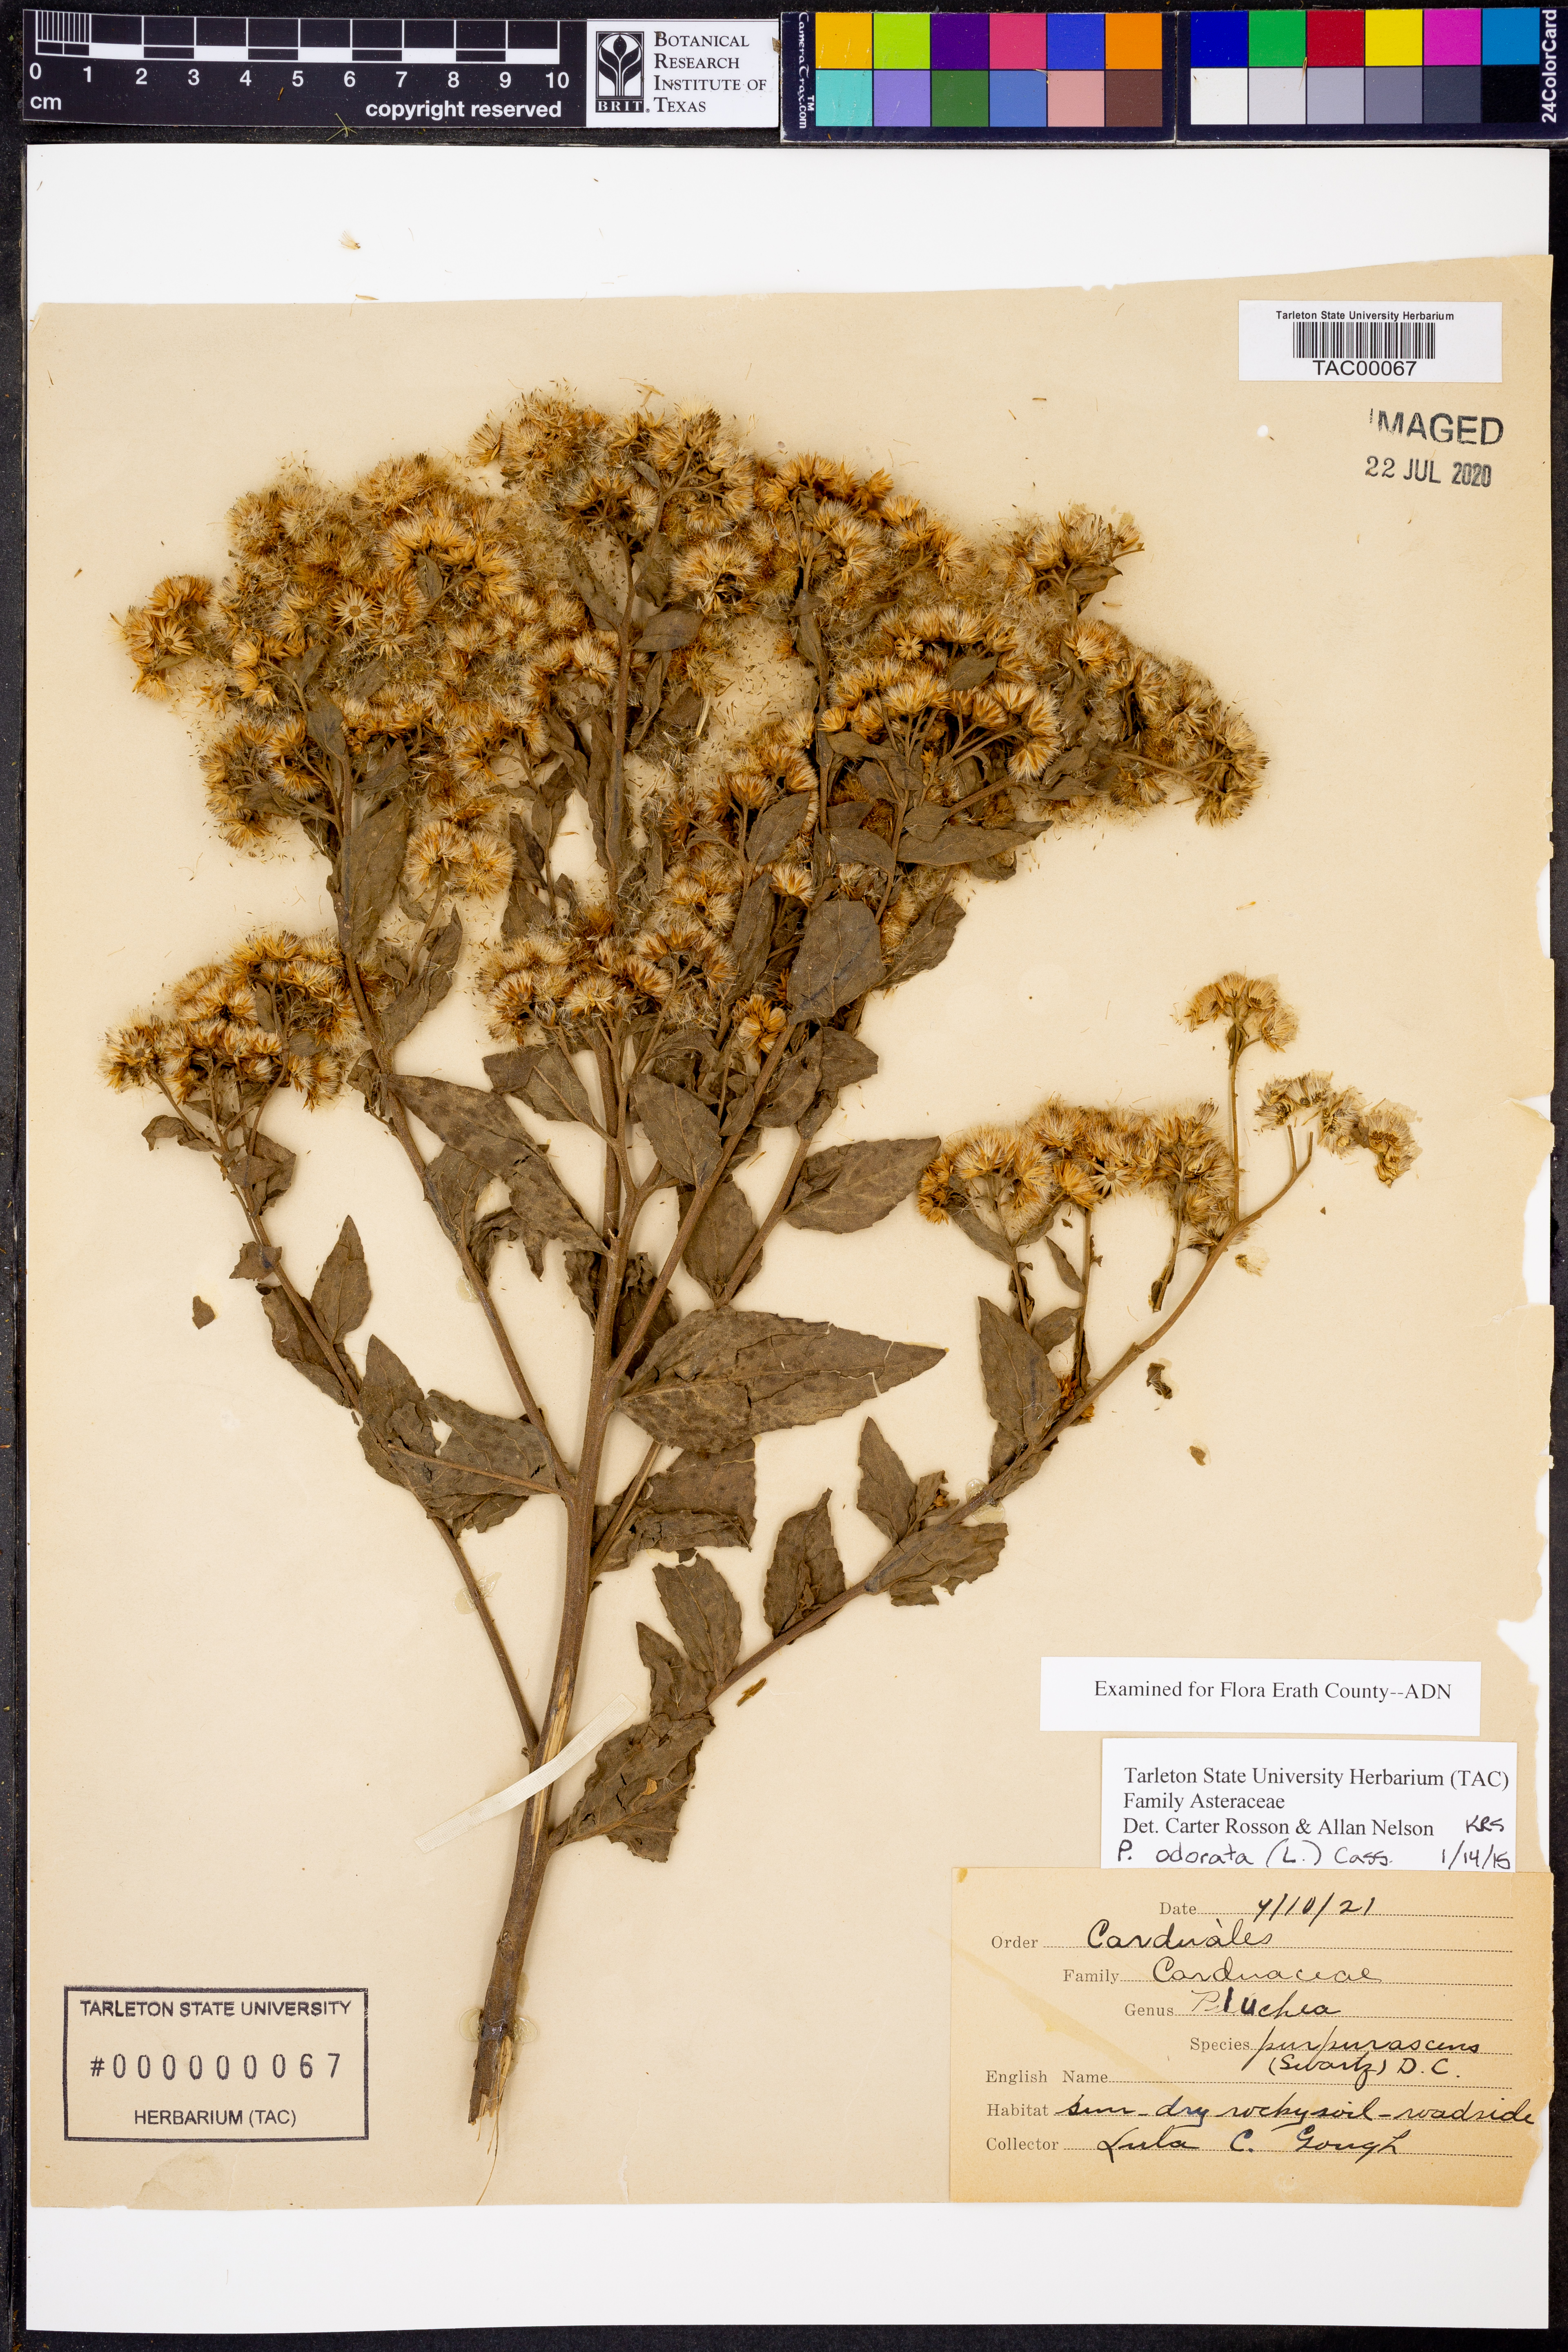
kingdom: Plantae
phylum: Tracheophyta
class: Magnoliopsida
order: Asterales
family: Asteraceae
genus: Pluchea
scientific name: Pluchea odorata
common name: Saltmarsh fleabane
